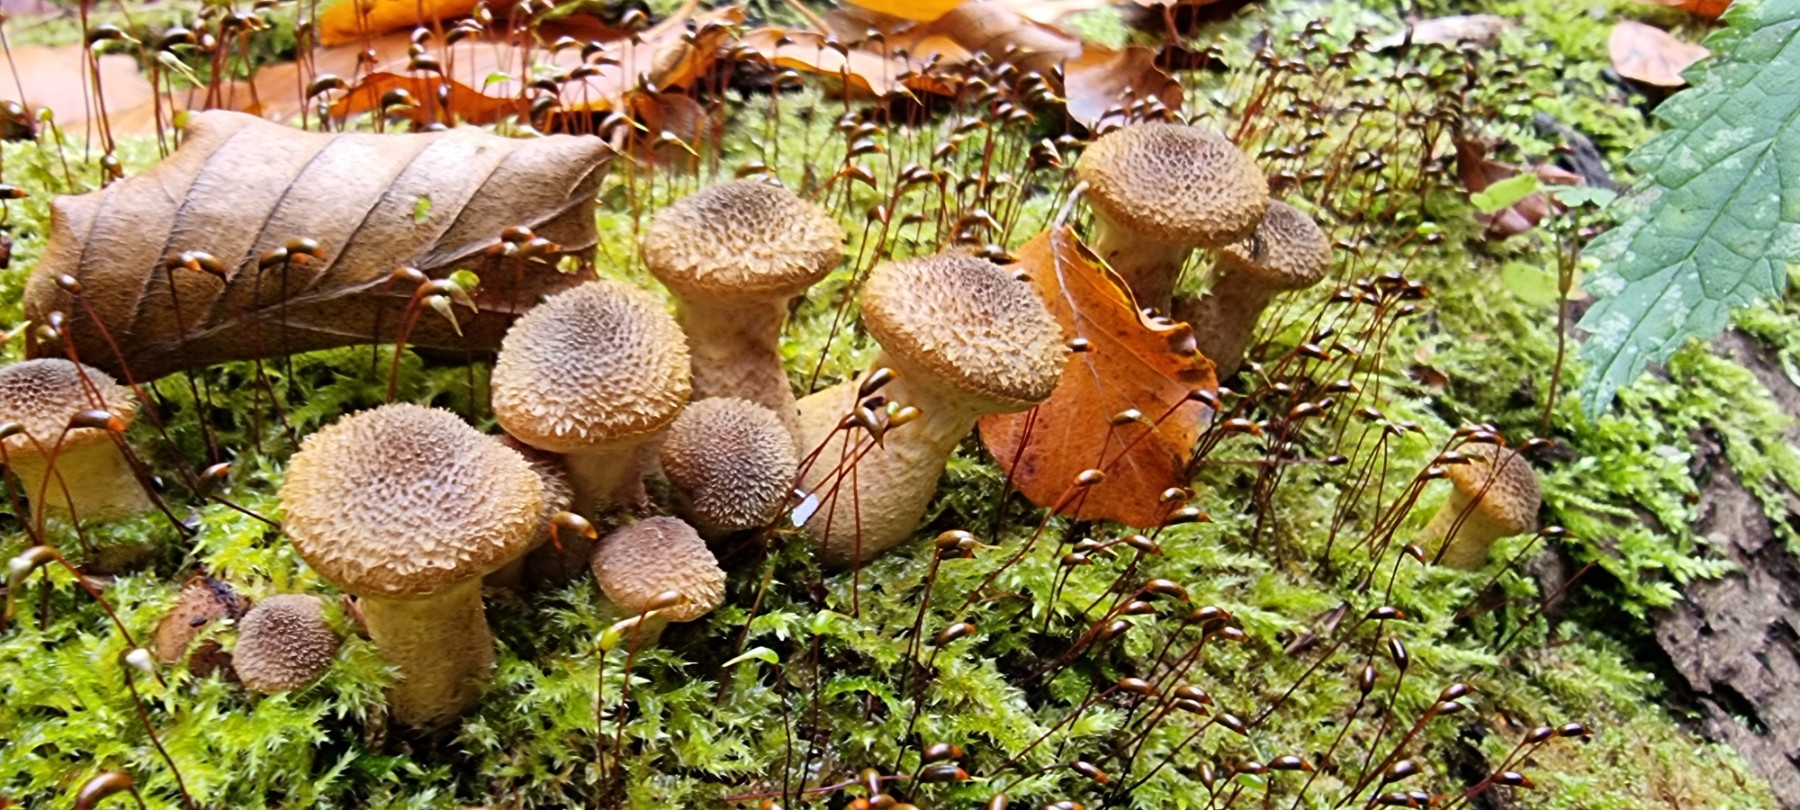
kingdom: Fungi
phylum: Basidiomycota
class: Agaricomycetes
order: Agaricales
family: Physalacriaceae
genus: Armillaria
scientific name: Armillaria lutea
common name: køllestokket honningsvamp
